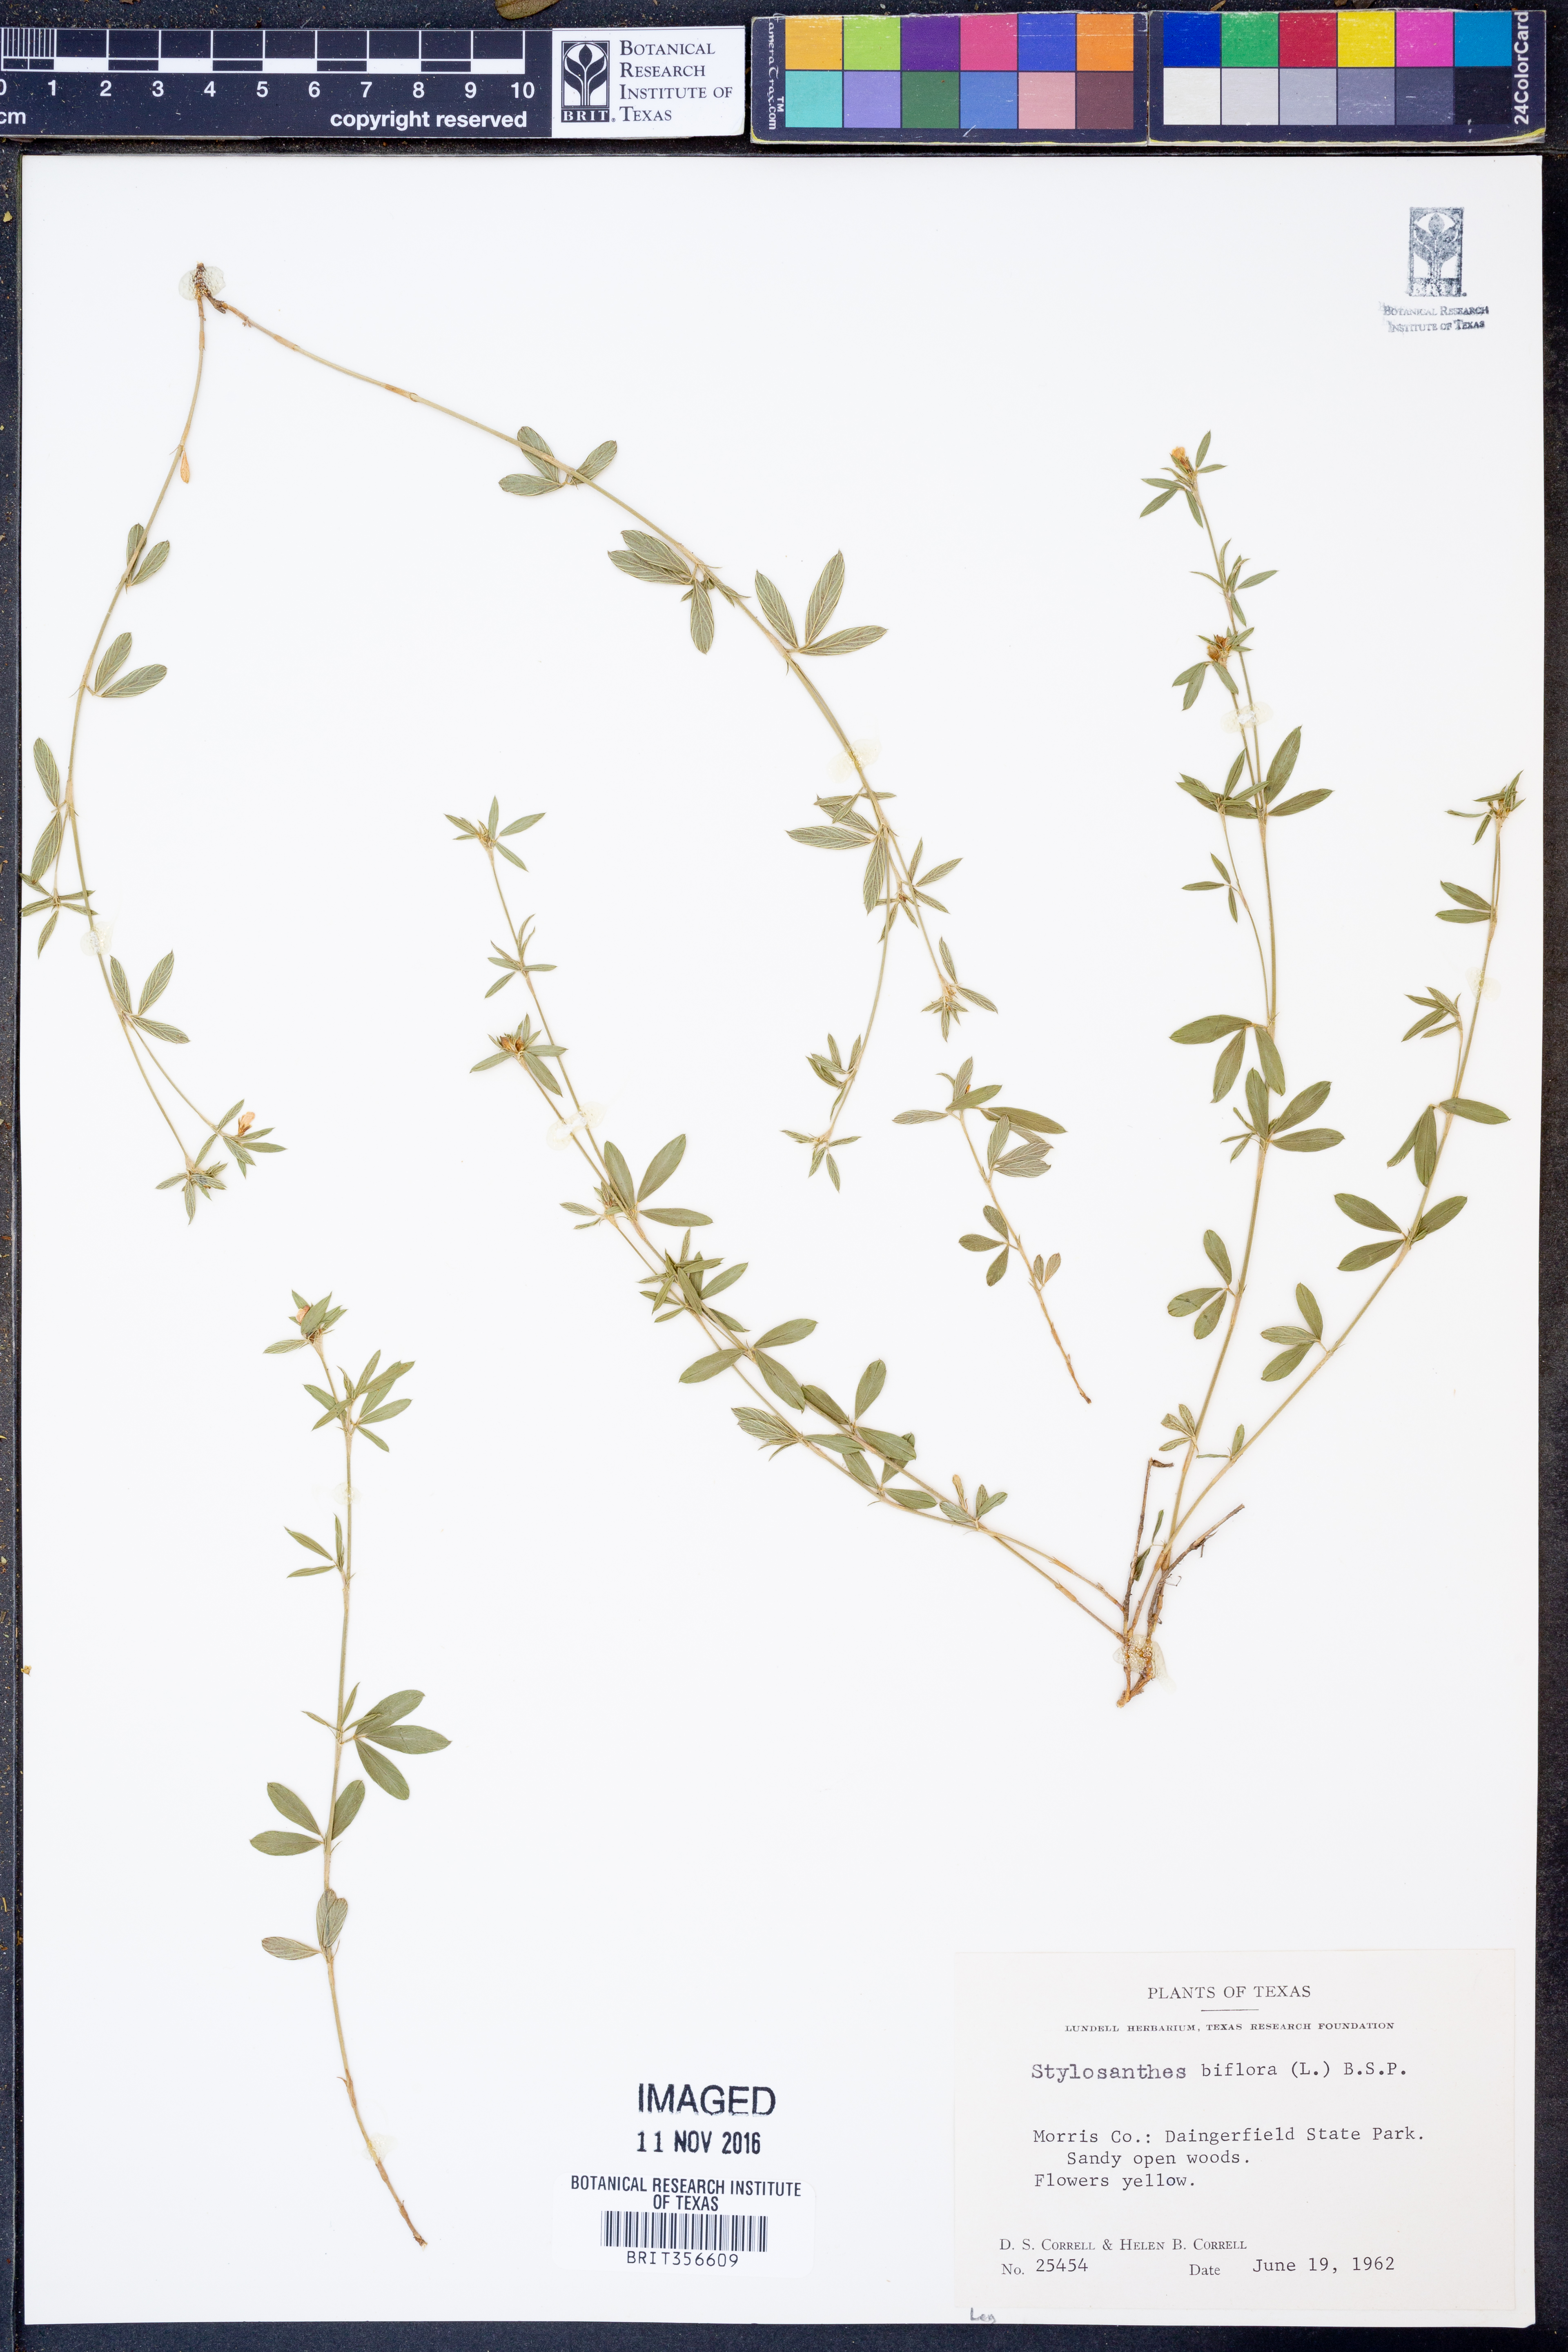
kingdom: Plantae
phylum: Tracheophyta
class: Magnoliopsida
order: Fabales
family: Fabaceae
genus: Stylosanthes
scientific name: Stylosanthes biflora
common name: Two-flower pencil-flower
